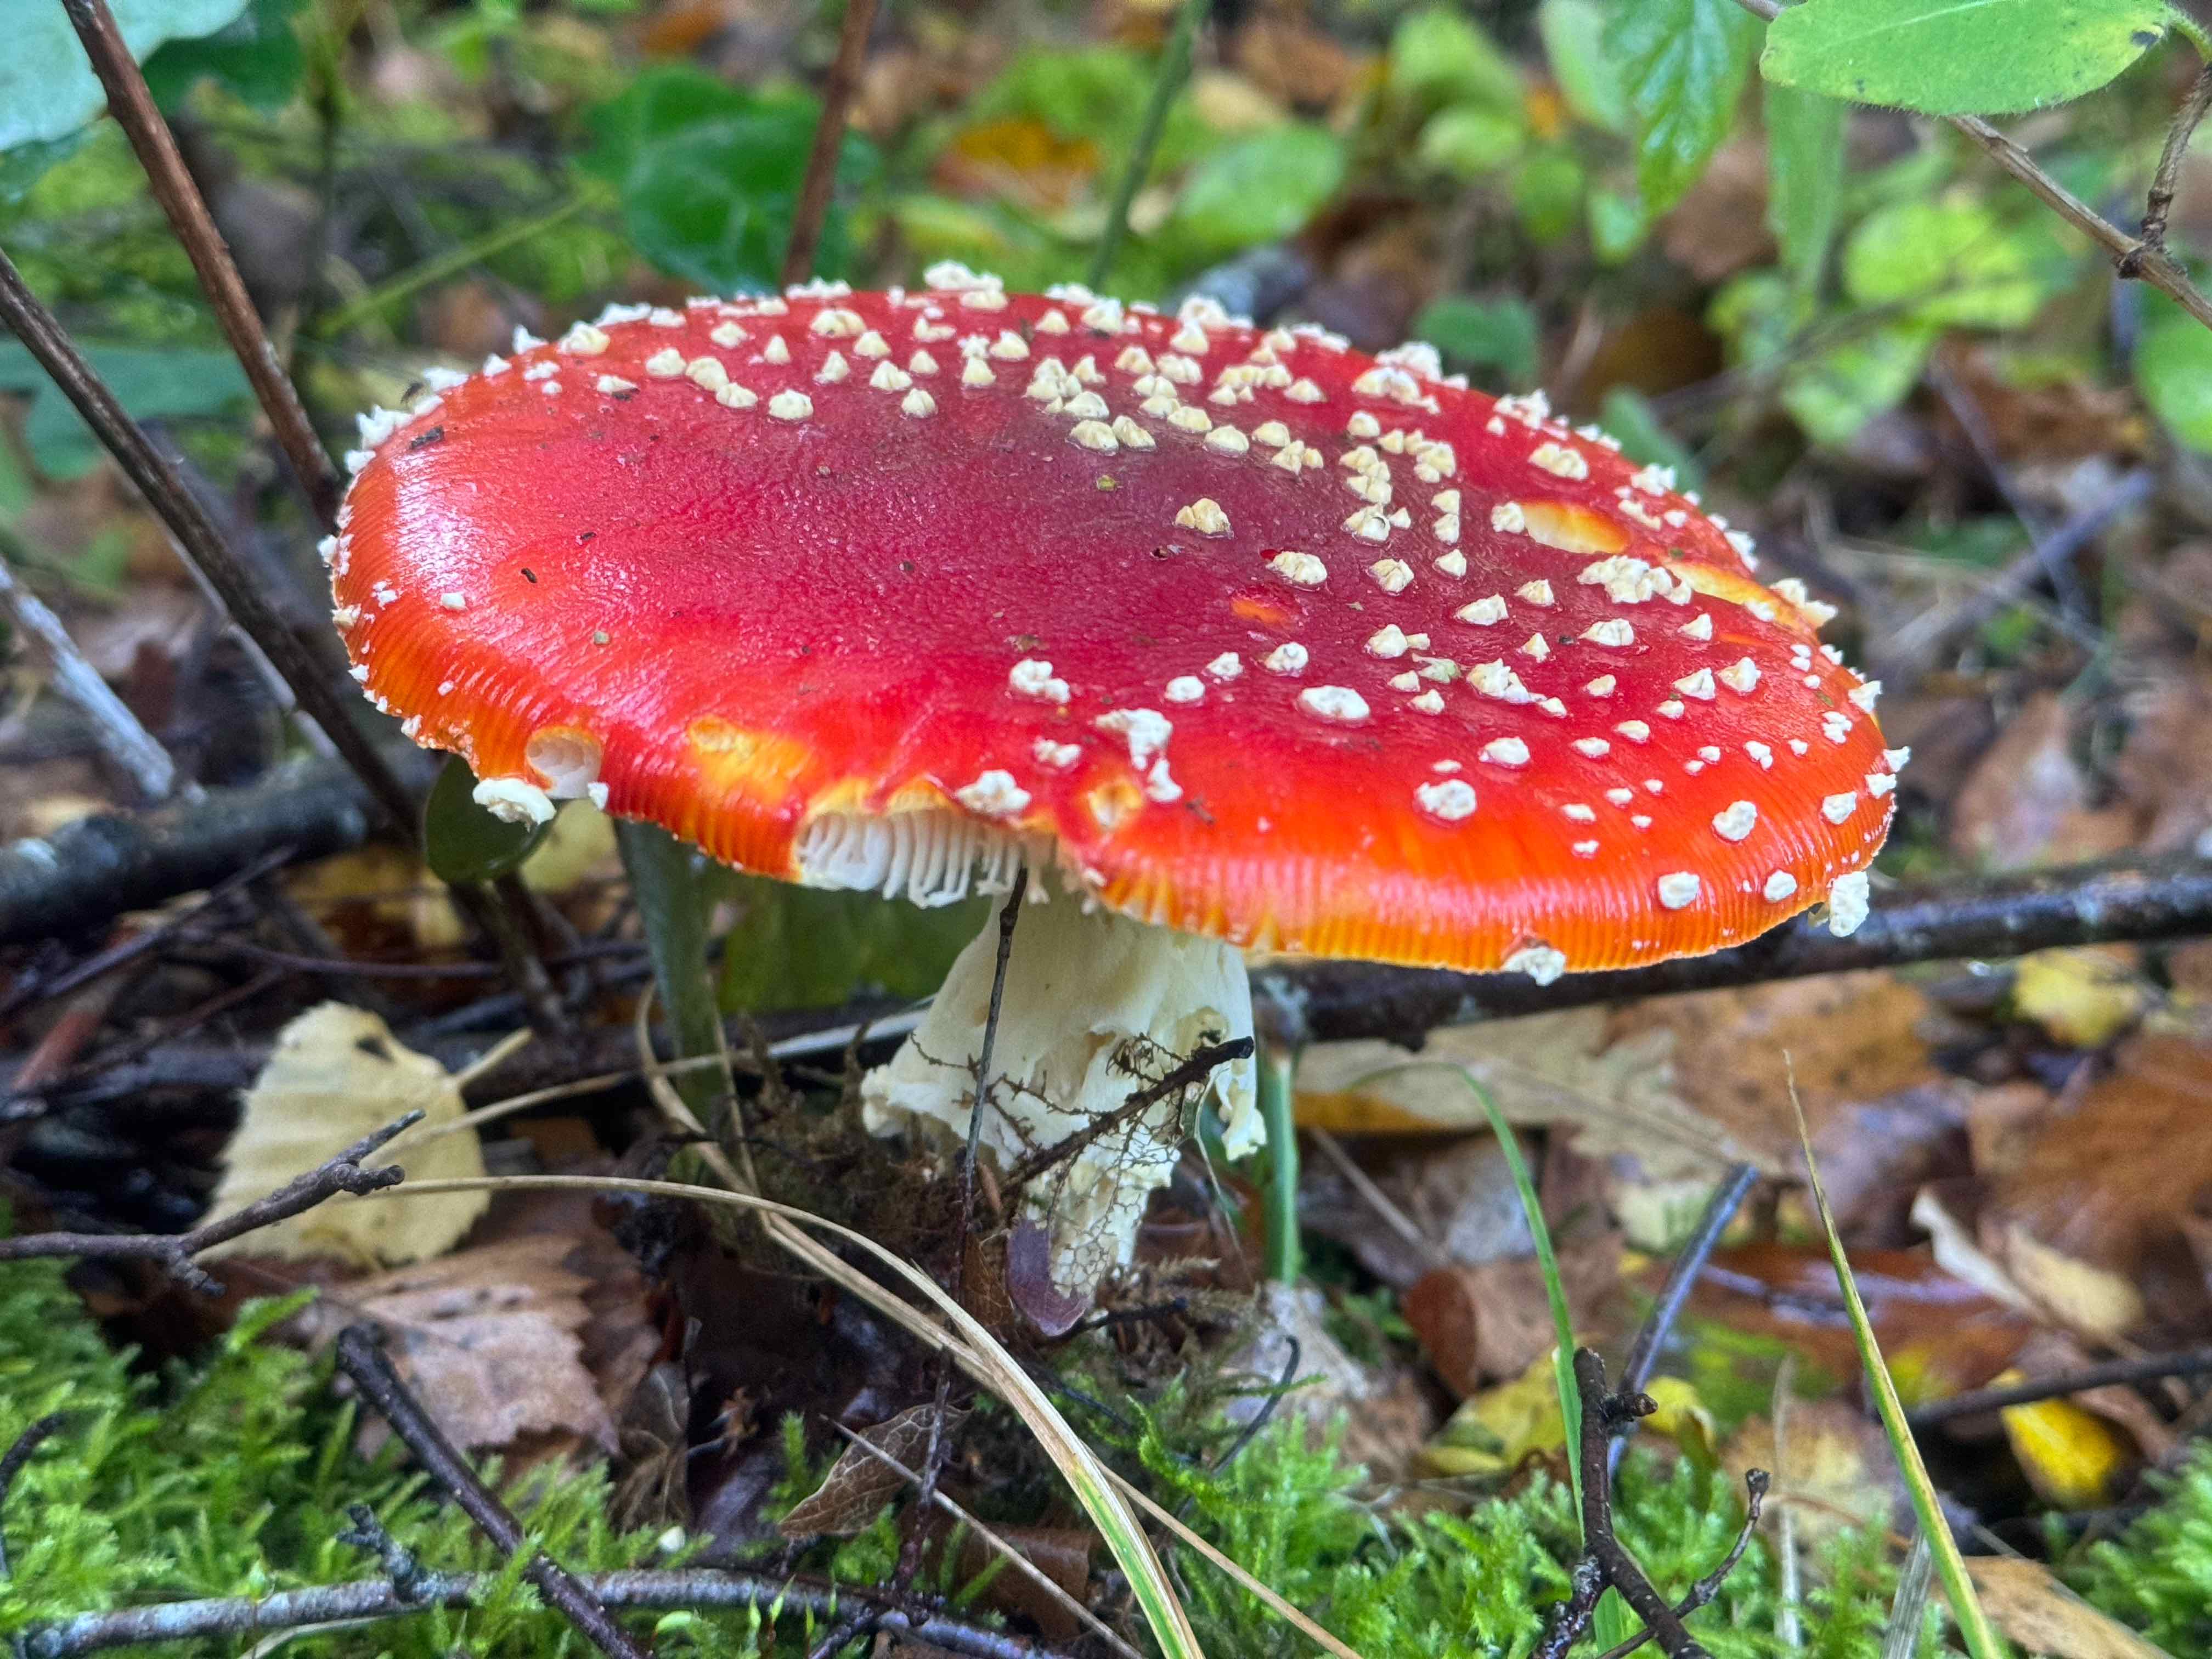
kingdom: Fungi
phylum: Basidiomycota
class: Agaricomycetes
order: Agaricales
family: Amanitaceae
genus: Amanita
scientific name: Amanita muscaria
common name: rød fluesvamp
